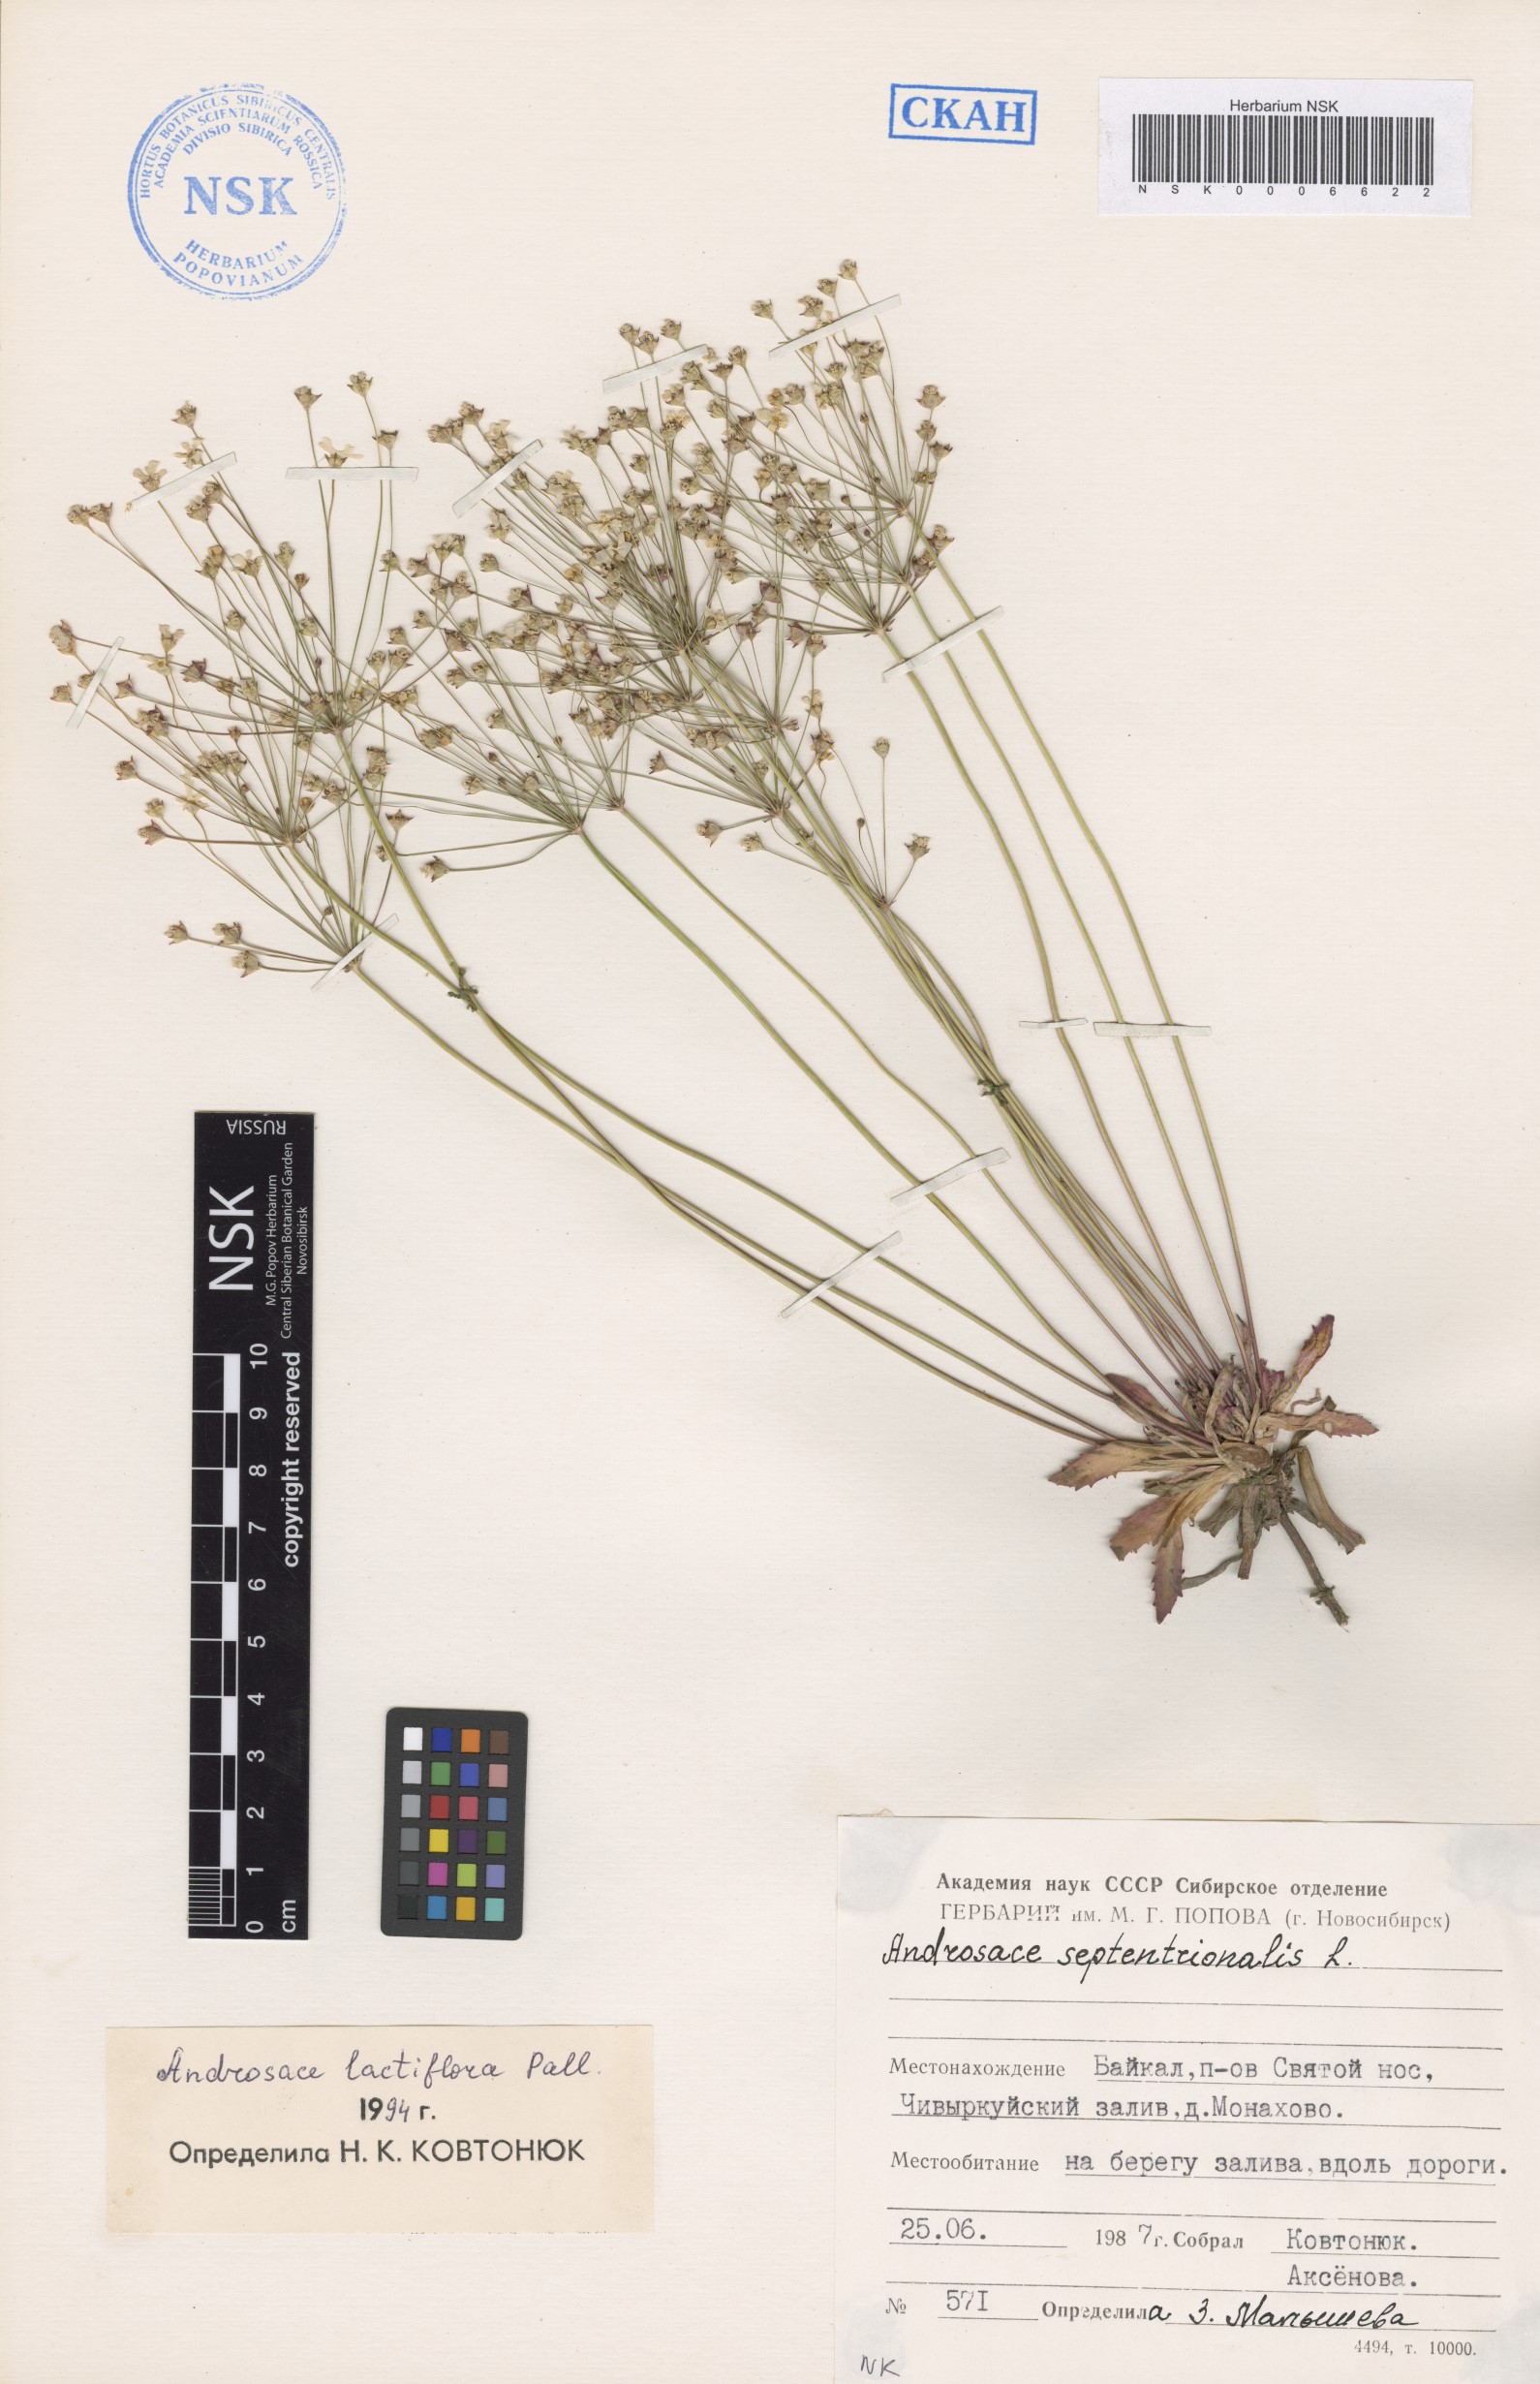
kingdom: Plantae
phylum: Tracheophyta
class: Magnoliopsida
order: Ericales
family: Primulaceae
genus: Androsace
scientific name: Androsace lactiflora
